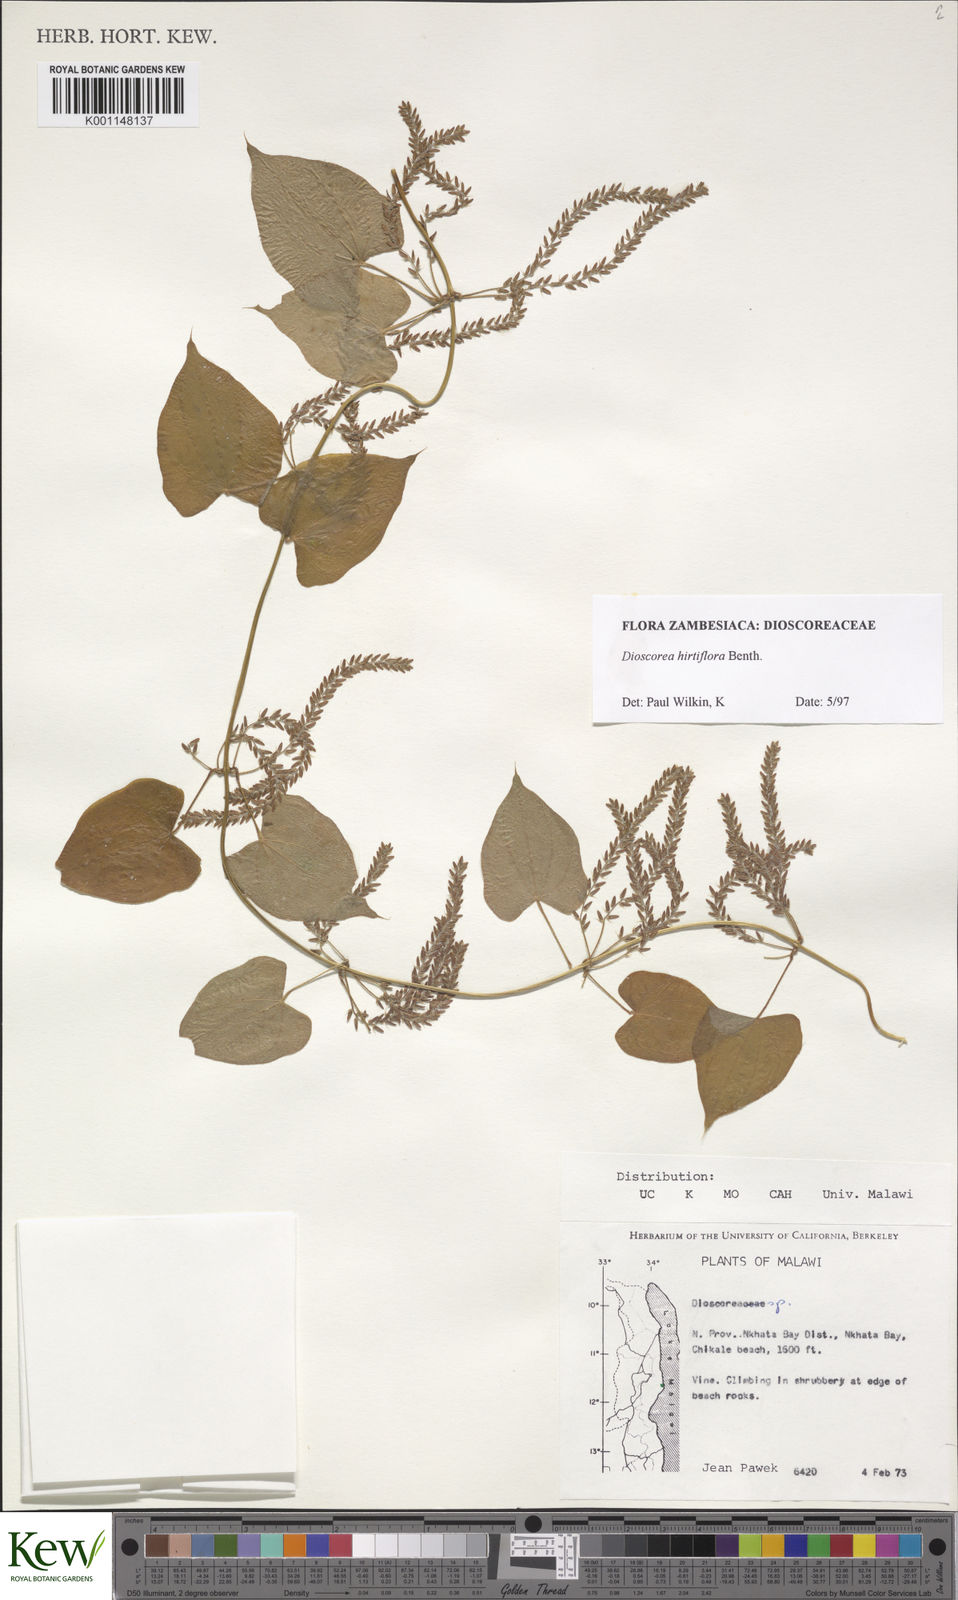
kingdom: Plantae
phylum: Tracheophyta
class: Liliopsida
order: Dioscoreales
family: Dioscoreaceae
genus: Dioscorea
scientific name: Dioscorea hirtiflora
